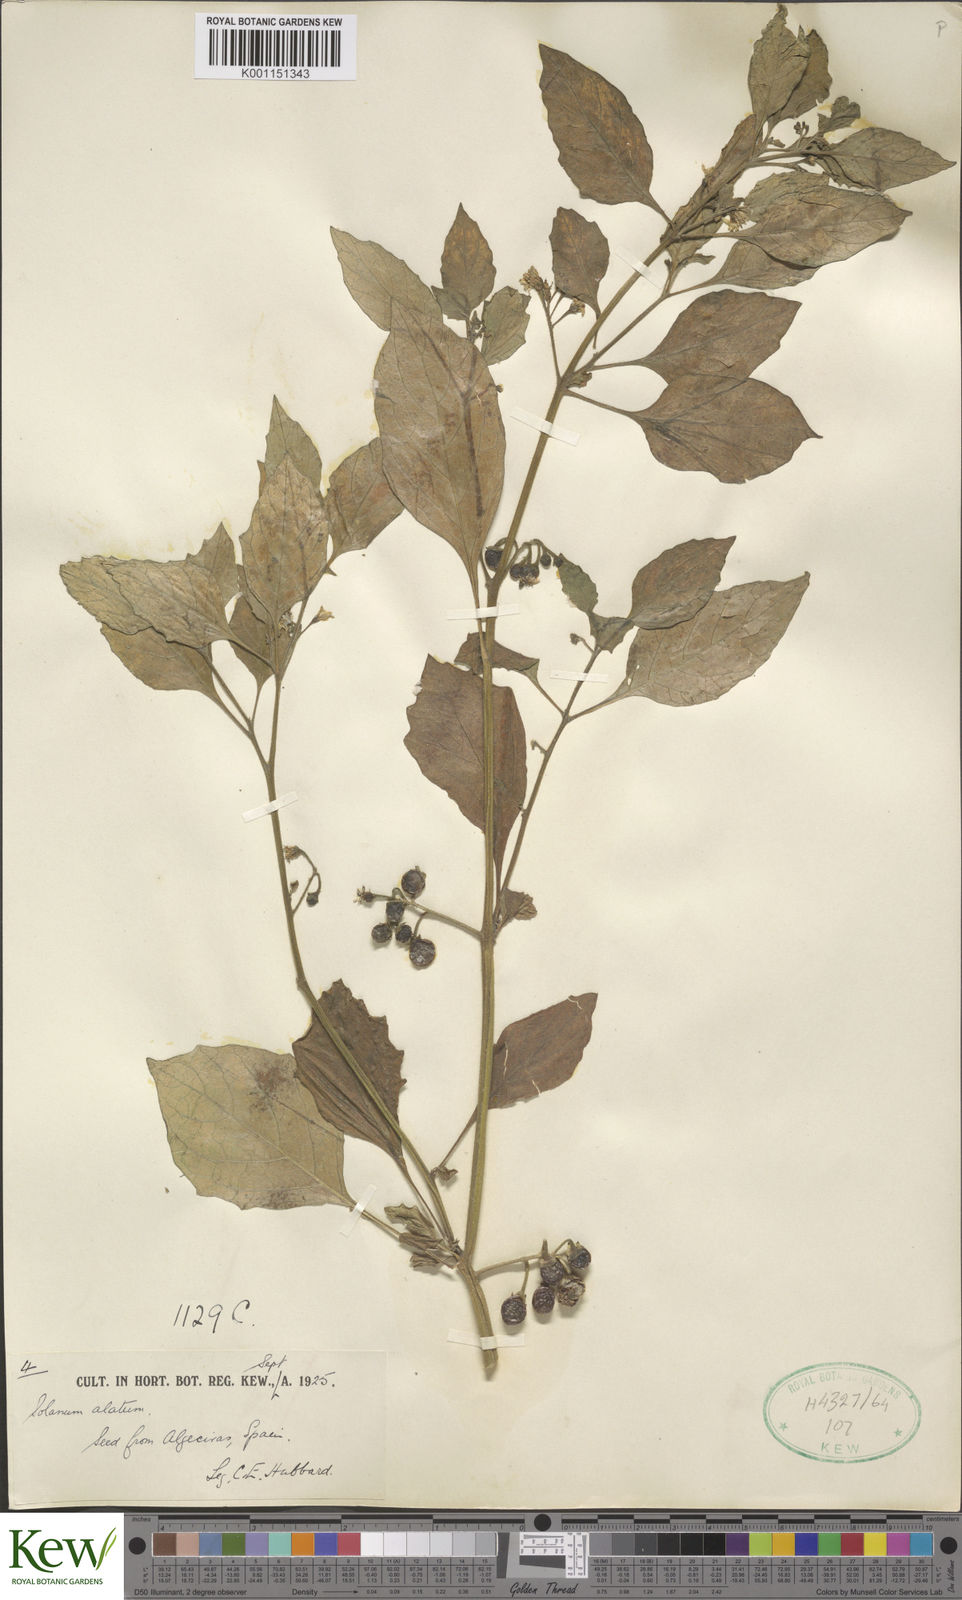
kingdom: Plantae
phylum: Tracheophyta
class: Magnoliopsida
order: Solanales
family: Solanaceae
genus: Solanum
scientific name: Solanum alatum
